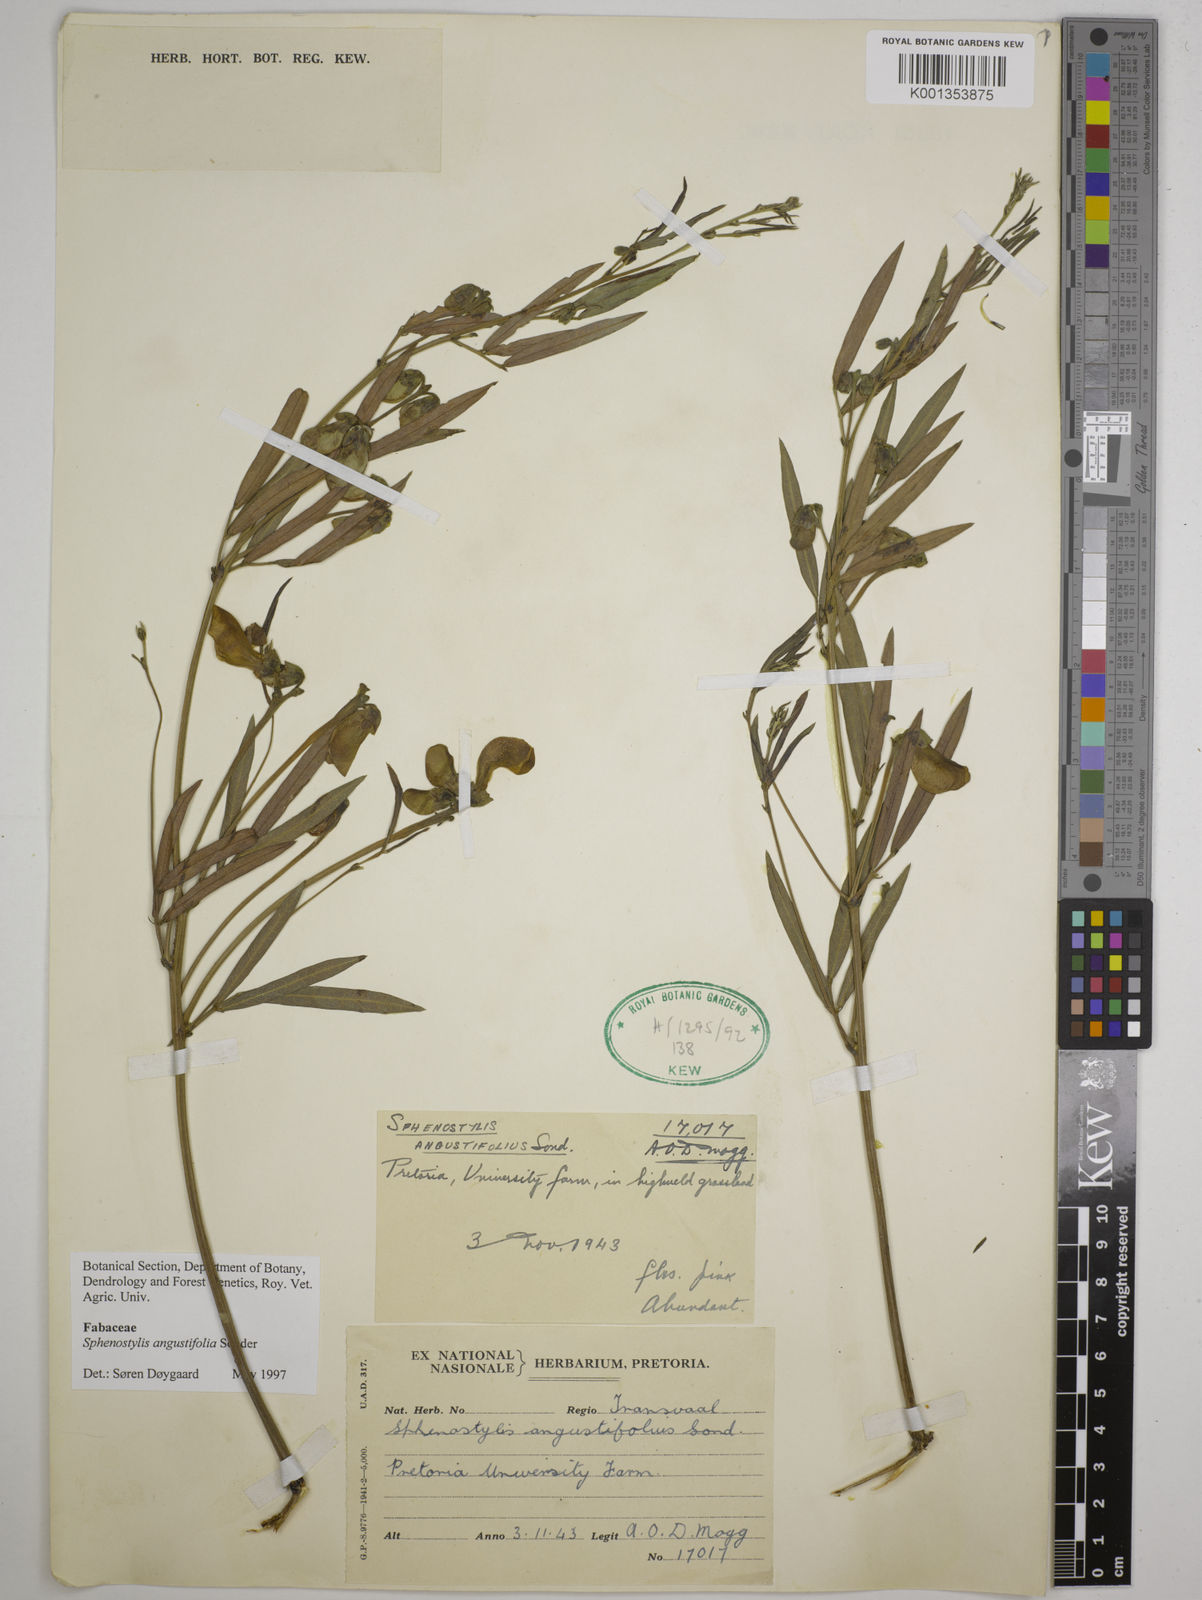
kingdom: Plantae
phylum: Tracheophyta
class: Magnoliopsida
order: Fabales
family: Fabaceae
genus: Sphenostylis
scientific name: Sphenostylis angustifolia
